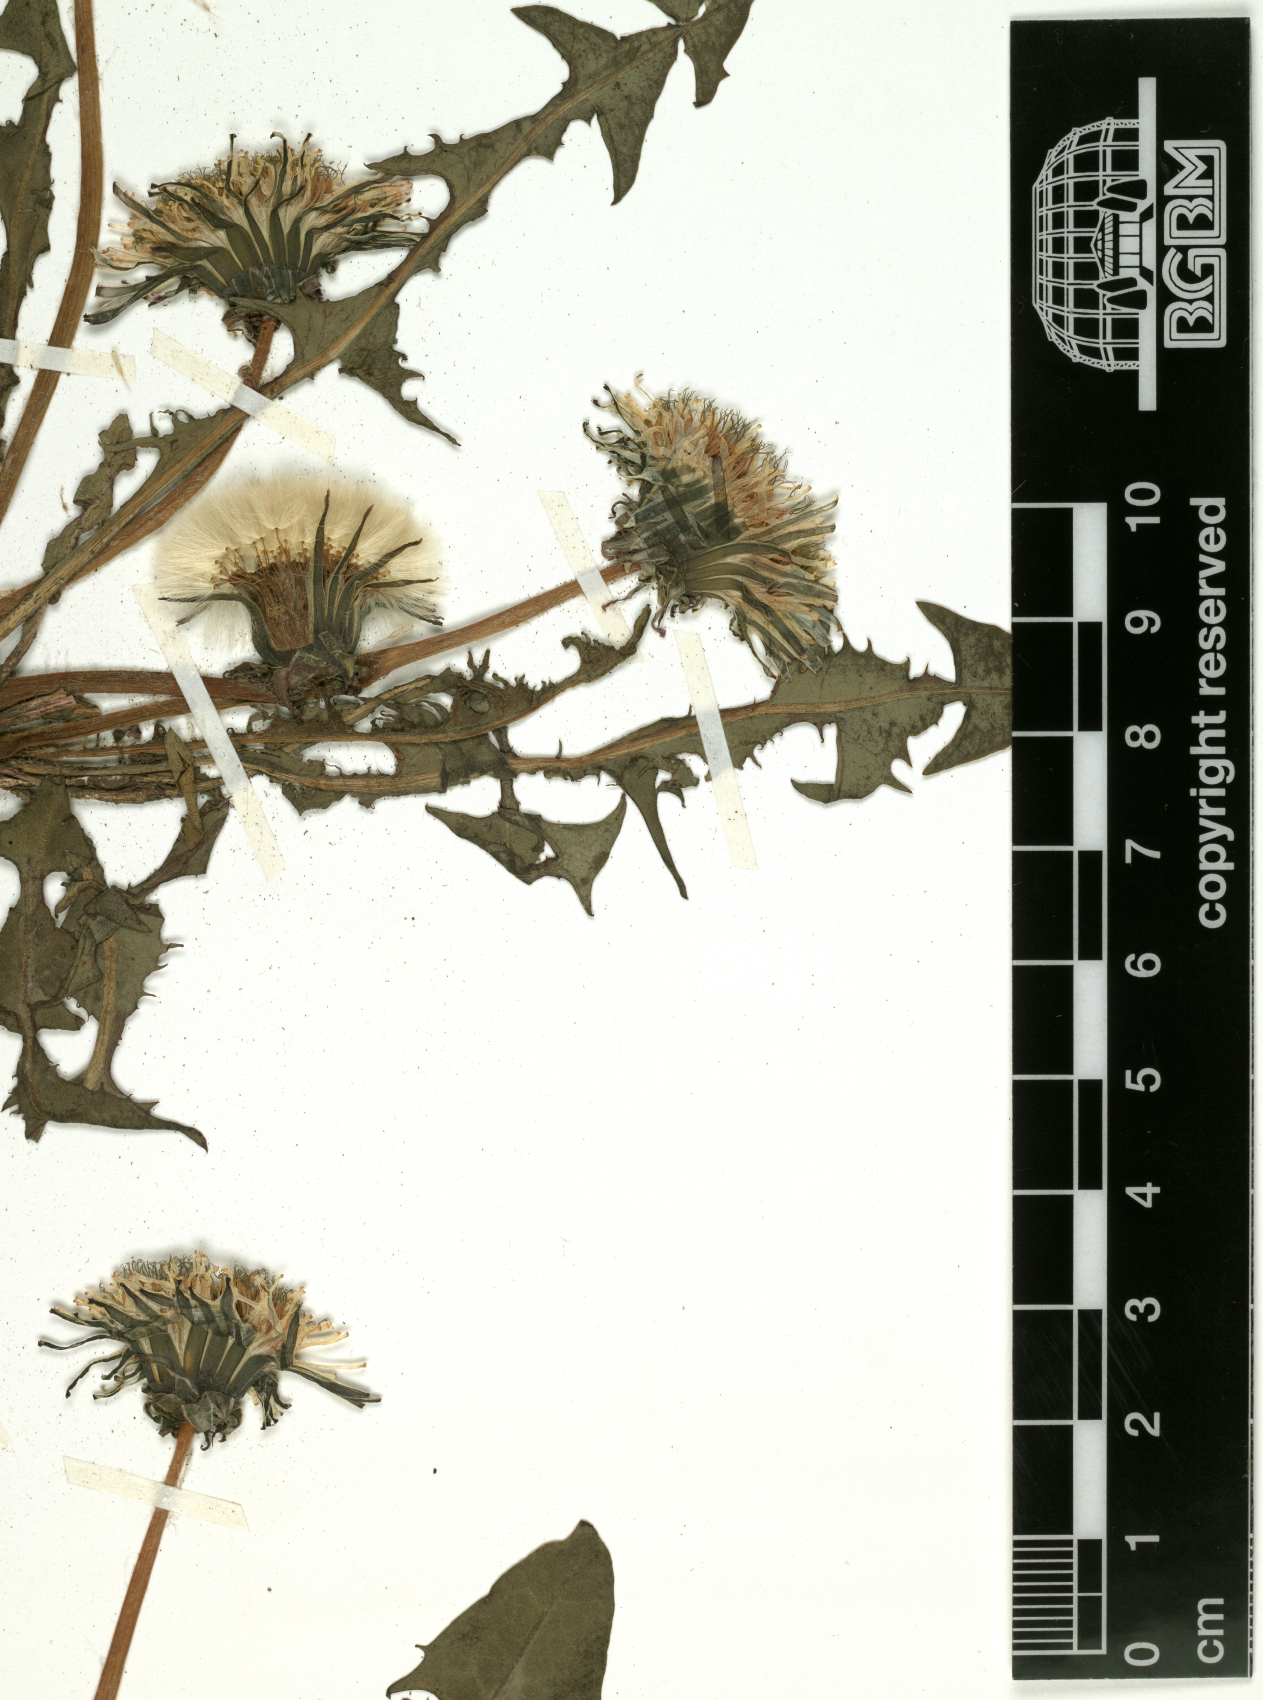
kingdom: Plantae
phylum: Tracheophyta
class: Magnoliopsida
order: Asterales
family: Asteraceae
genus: Taraxacum
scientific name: Taraxacum officinale
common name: Common dandelion
